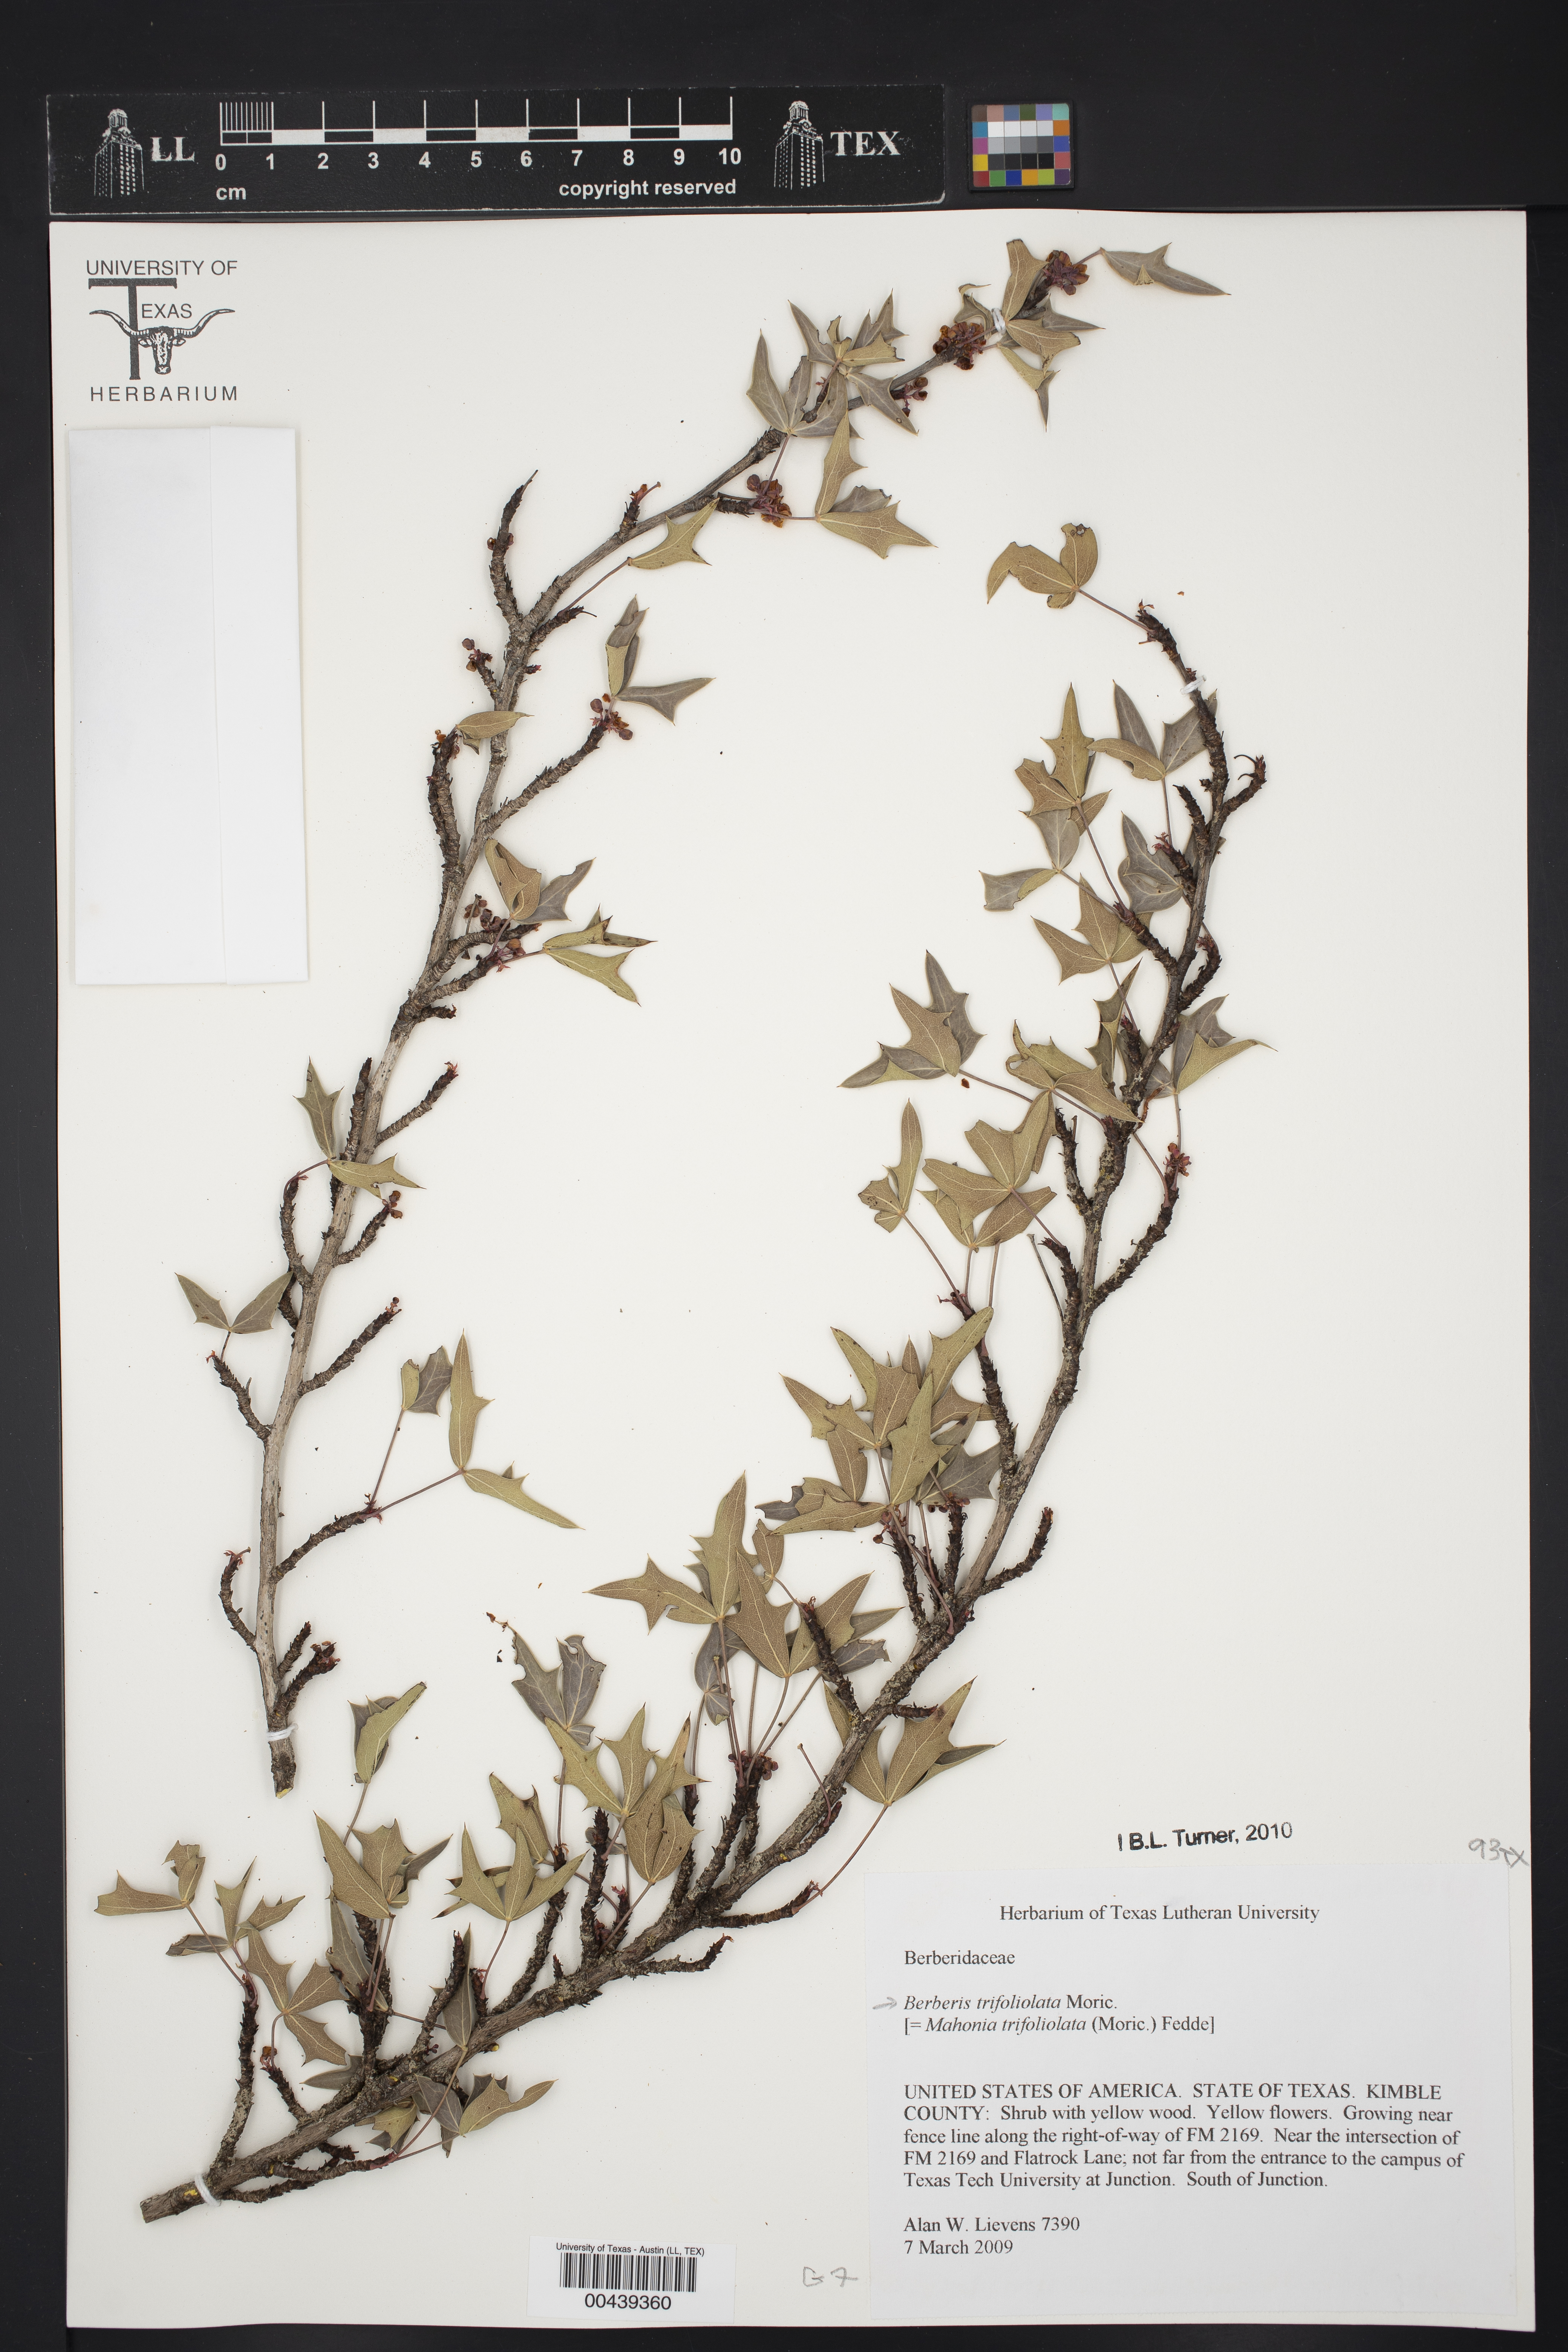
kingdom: Plantae
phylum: Tracheophyta
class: Magnoliopsida
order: Ranunculales
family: Berberidaceae
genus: Alloberberis
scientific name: Alloberberis trifoliolata
